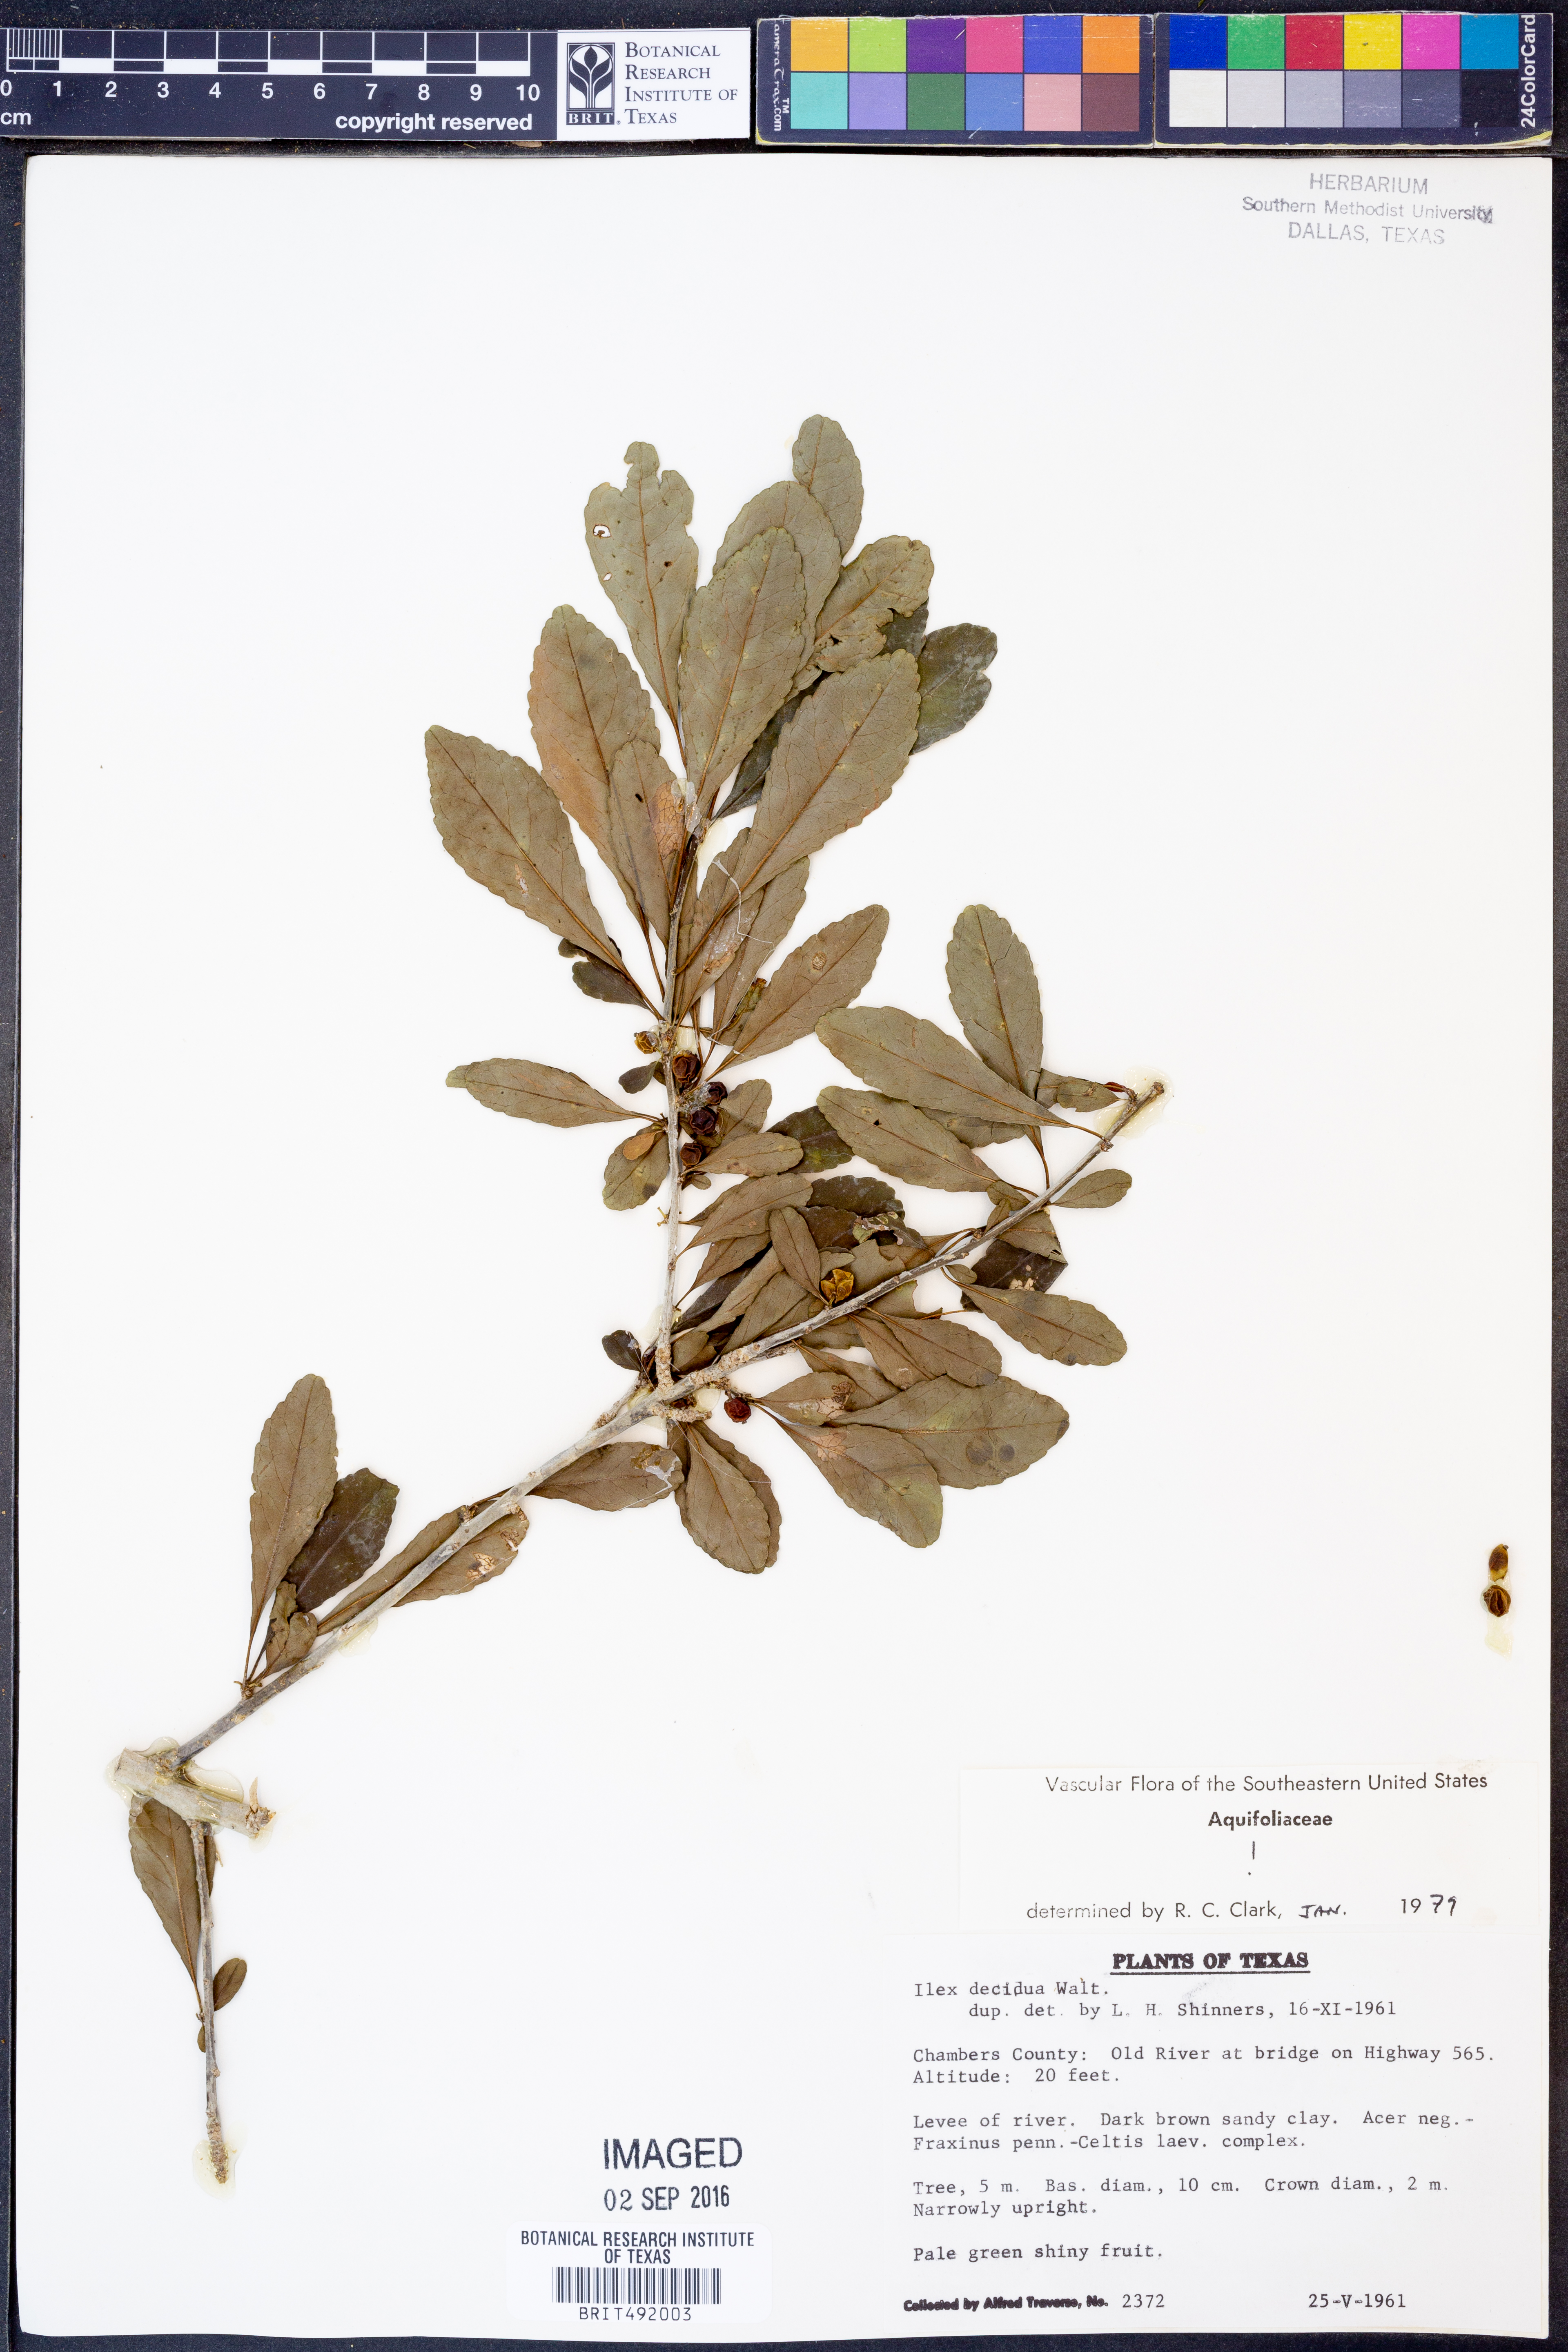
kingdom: Plantae
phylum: Tracheophyta
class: Magnoliopsida
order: Aquifoliales
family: Aquifoliaceae
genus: Ilex
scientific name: Ilex decidua
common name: Possum-haw
